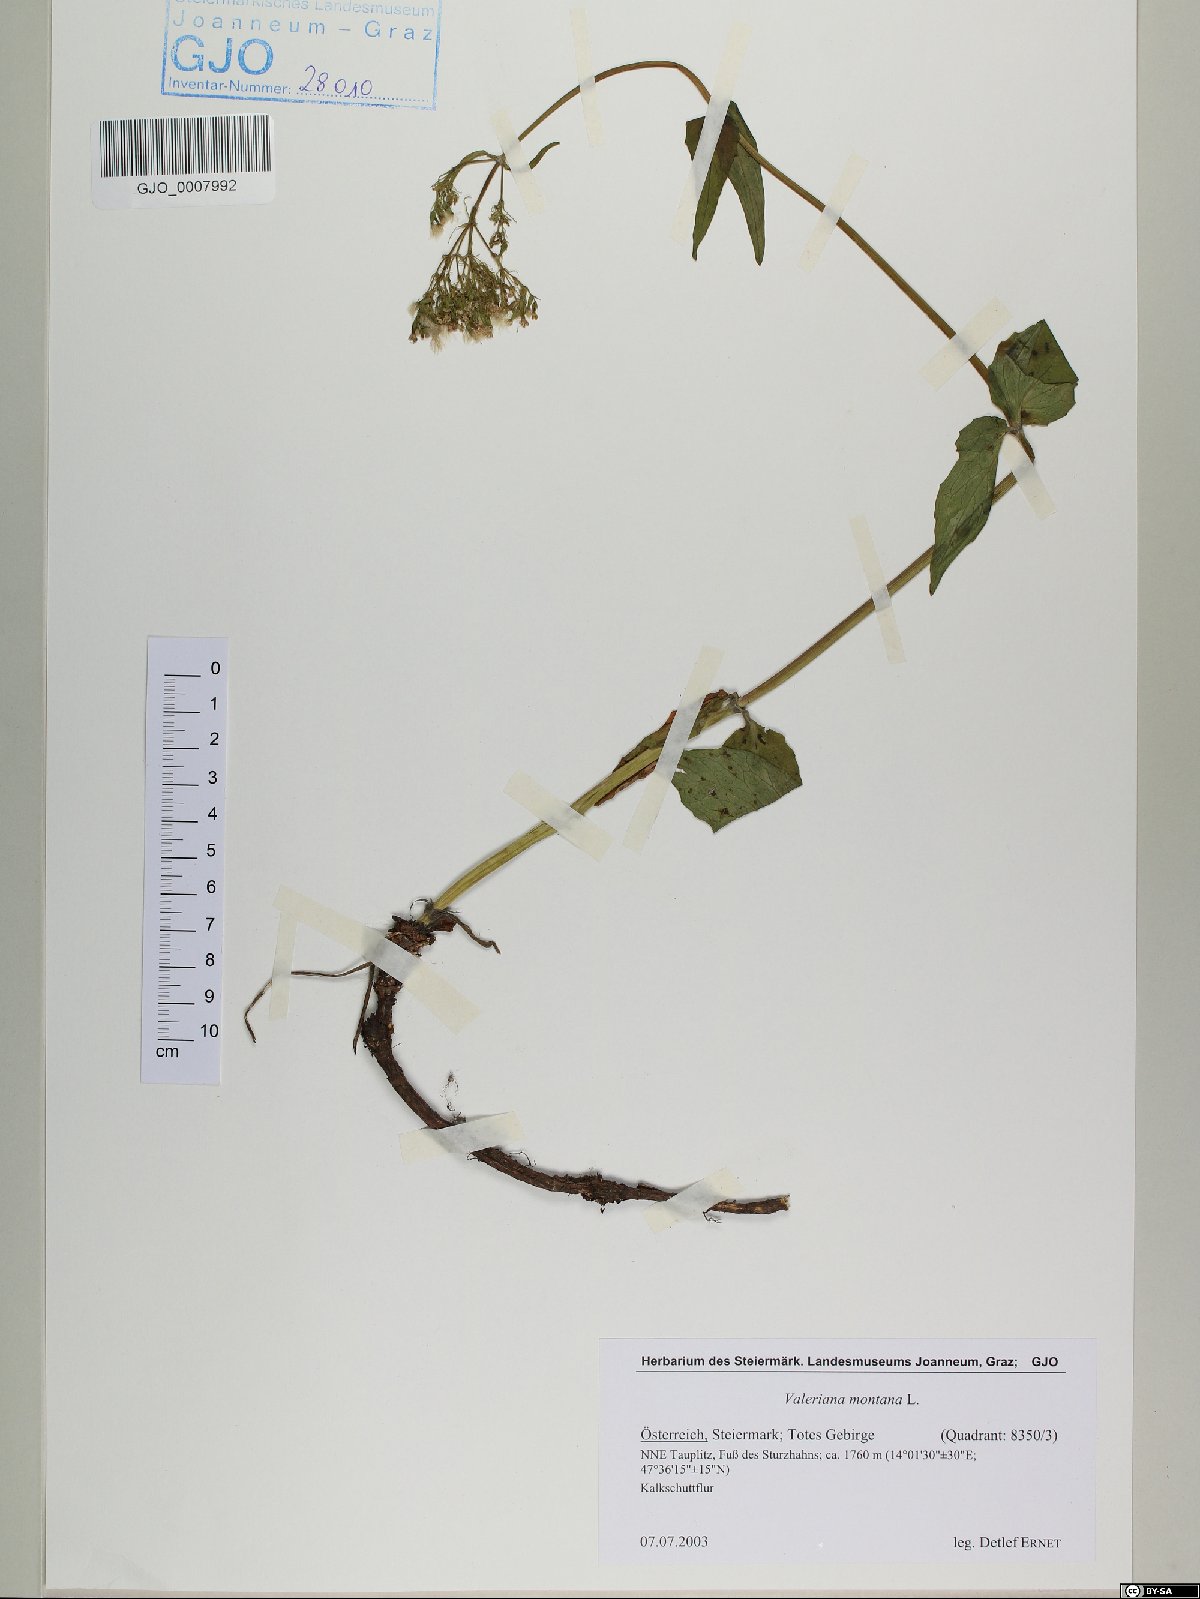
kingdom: Plantae
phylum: Tracheophyta
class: Magnoliopsida
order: Dipsacales
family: Caprifoliaceae
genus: Valeriana
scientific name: Valeriana montana
